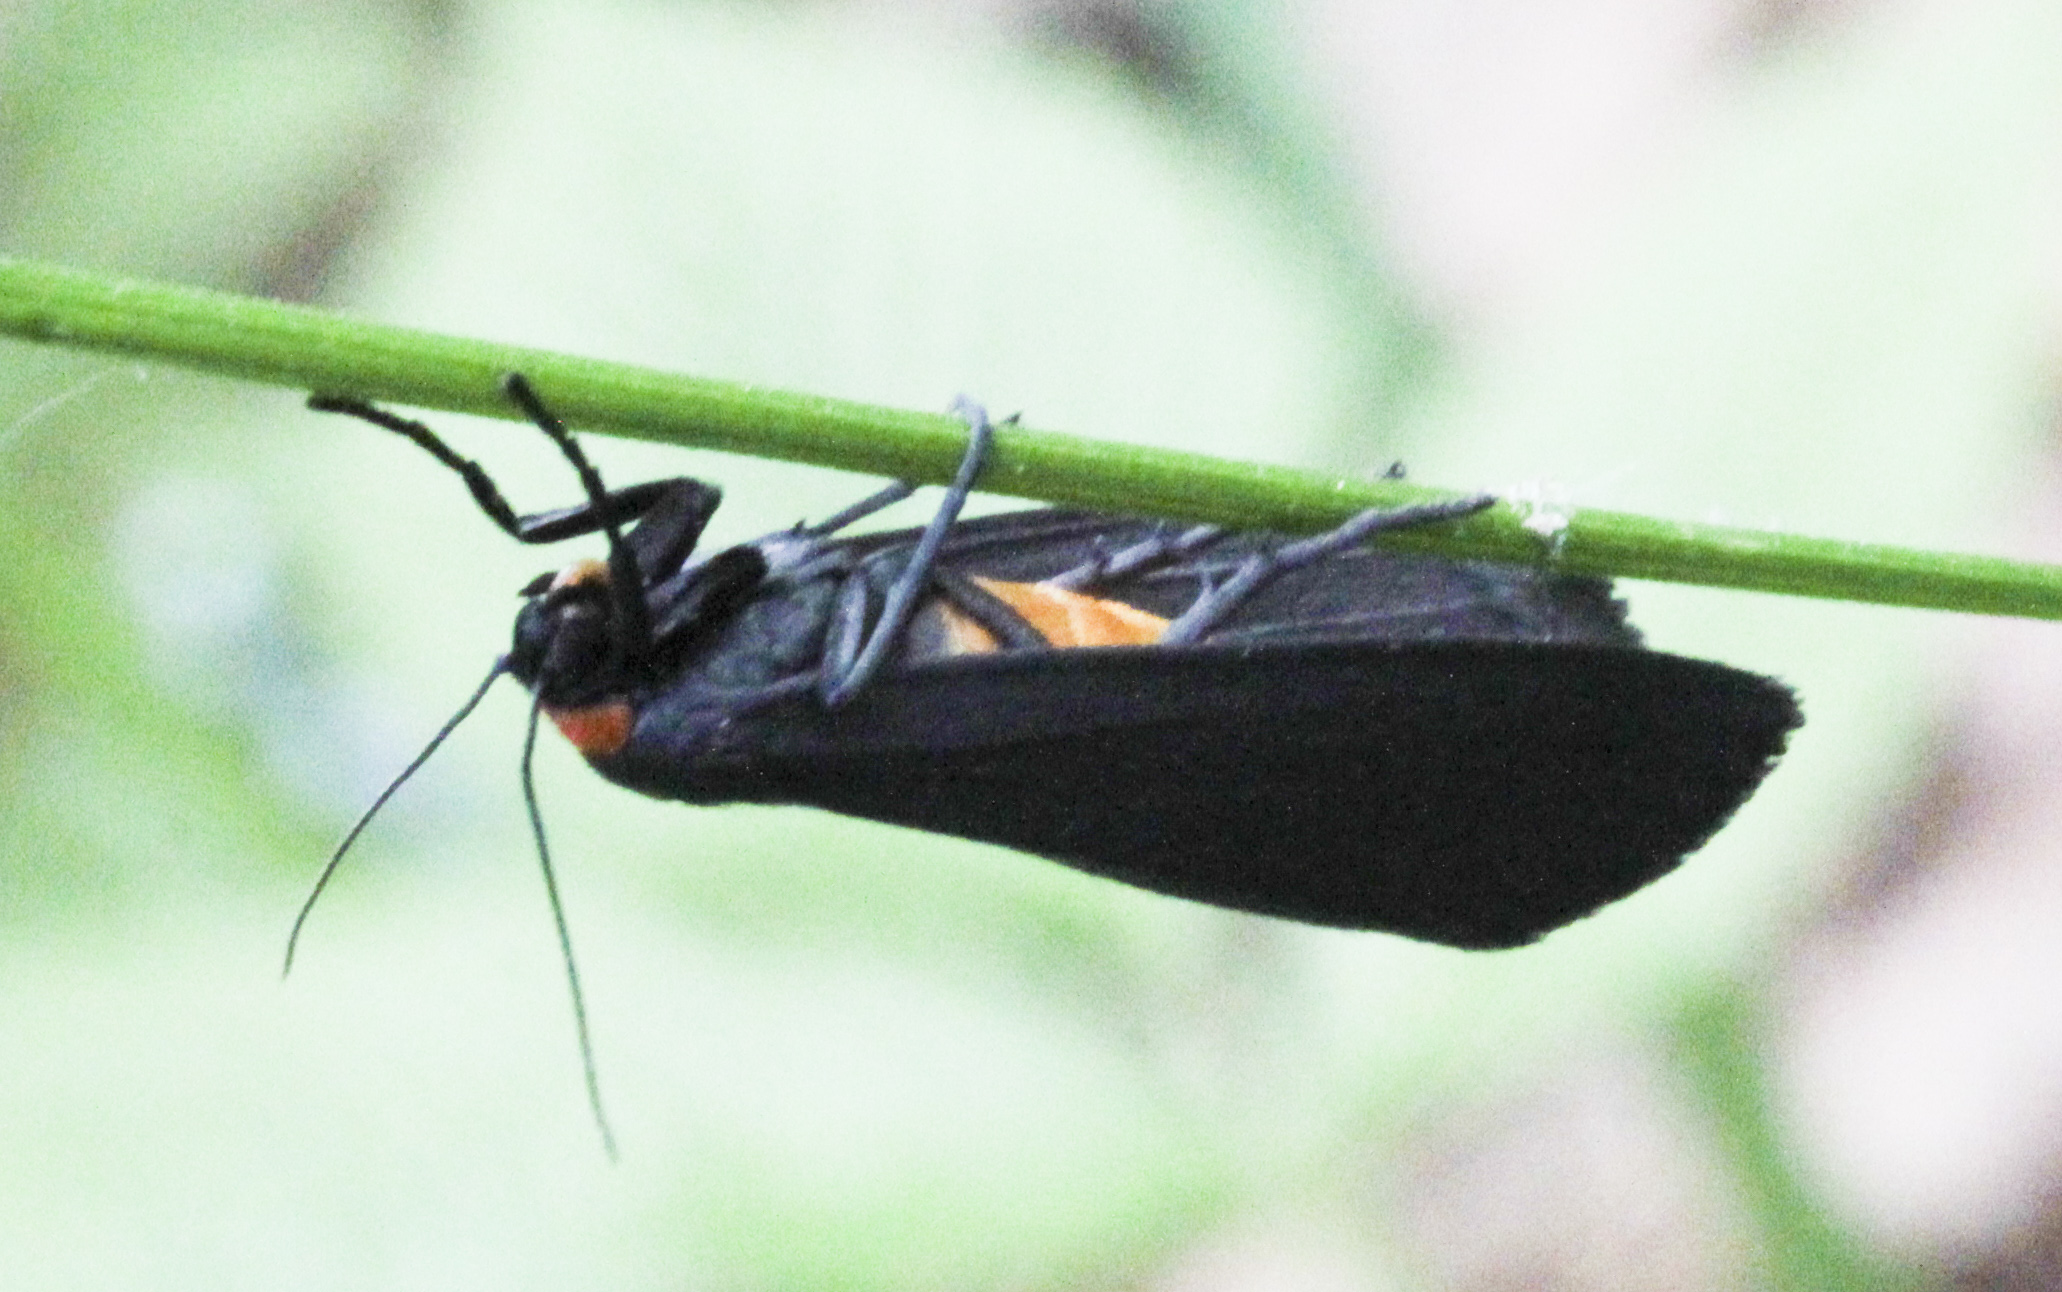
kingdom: Animalia
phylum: Arthropoda
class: Insecta
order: Lepidoptera
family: Erebidae
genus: Atolmis
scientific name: Atolmis rubricollis
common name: Red-necked footman
